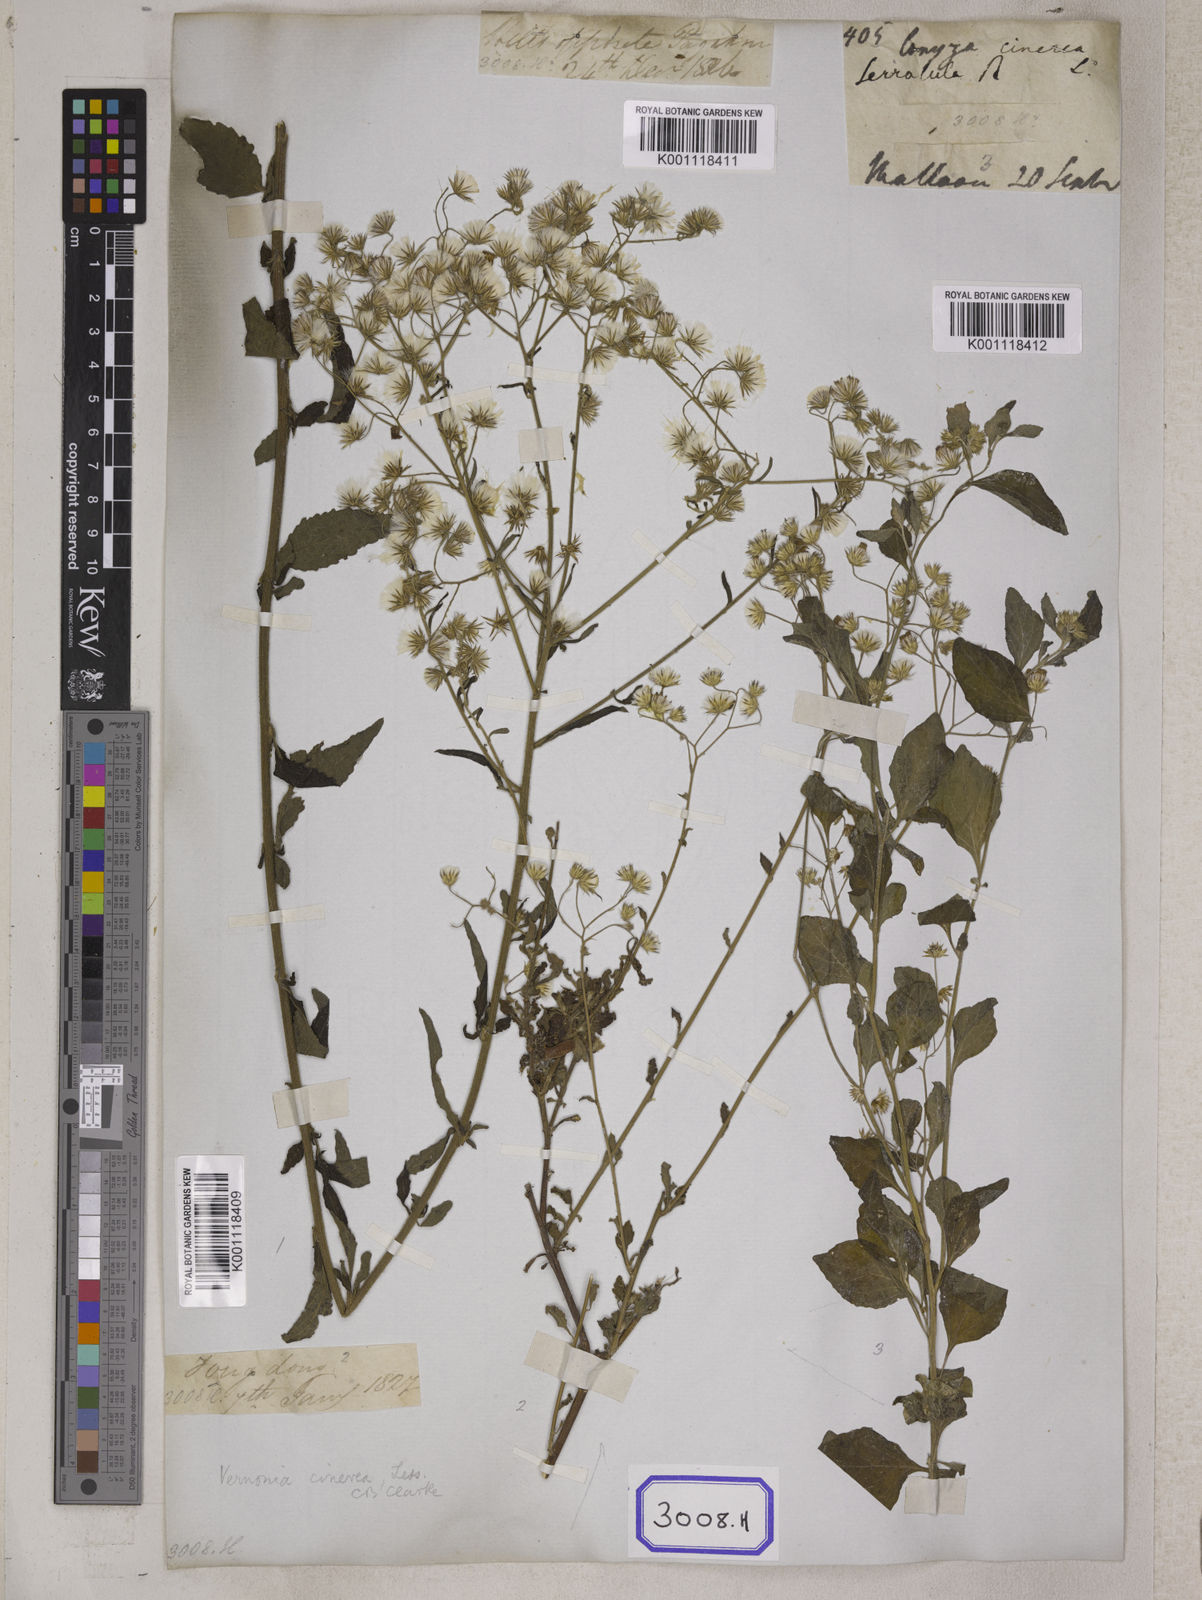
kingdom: Plantae
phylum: Tracheophyta
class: Magnoliopsida
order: Asterales
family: Asteraceae
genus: Cyanthillium
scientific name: Cyanthillium cinereum
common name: Little ironweed
